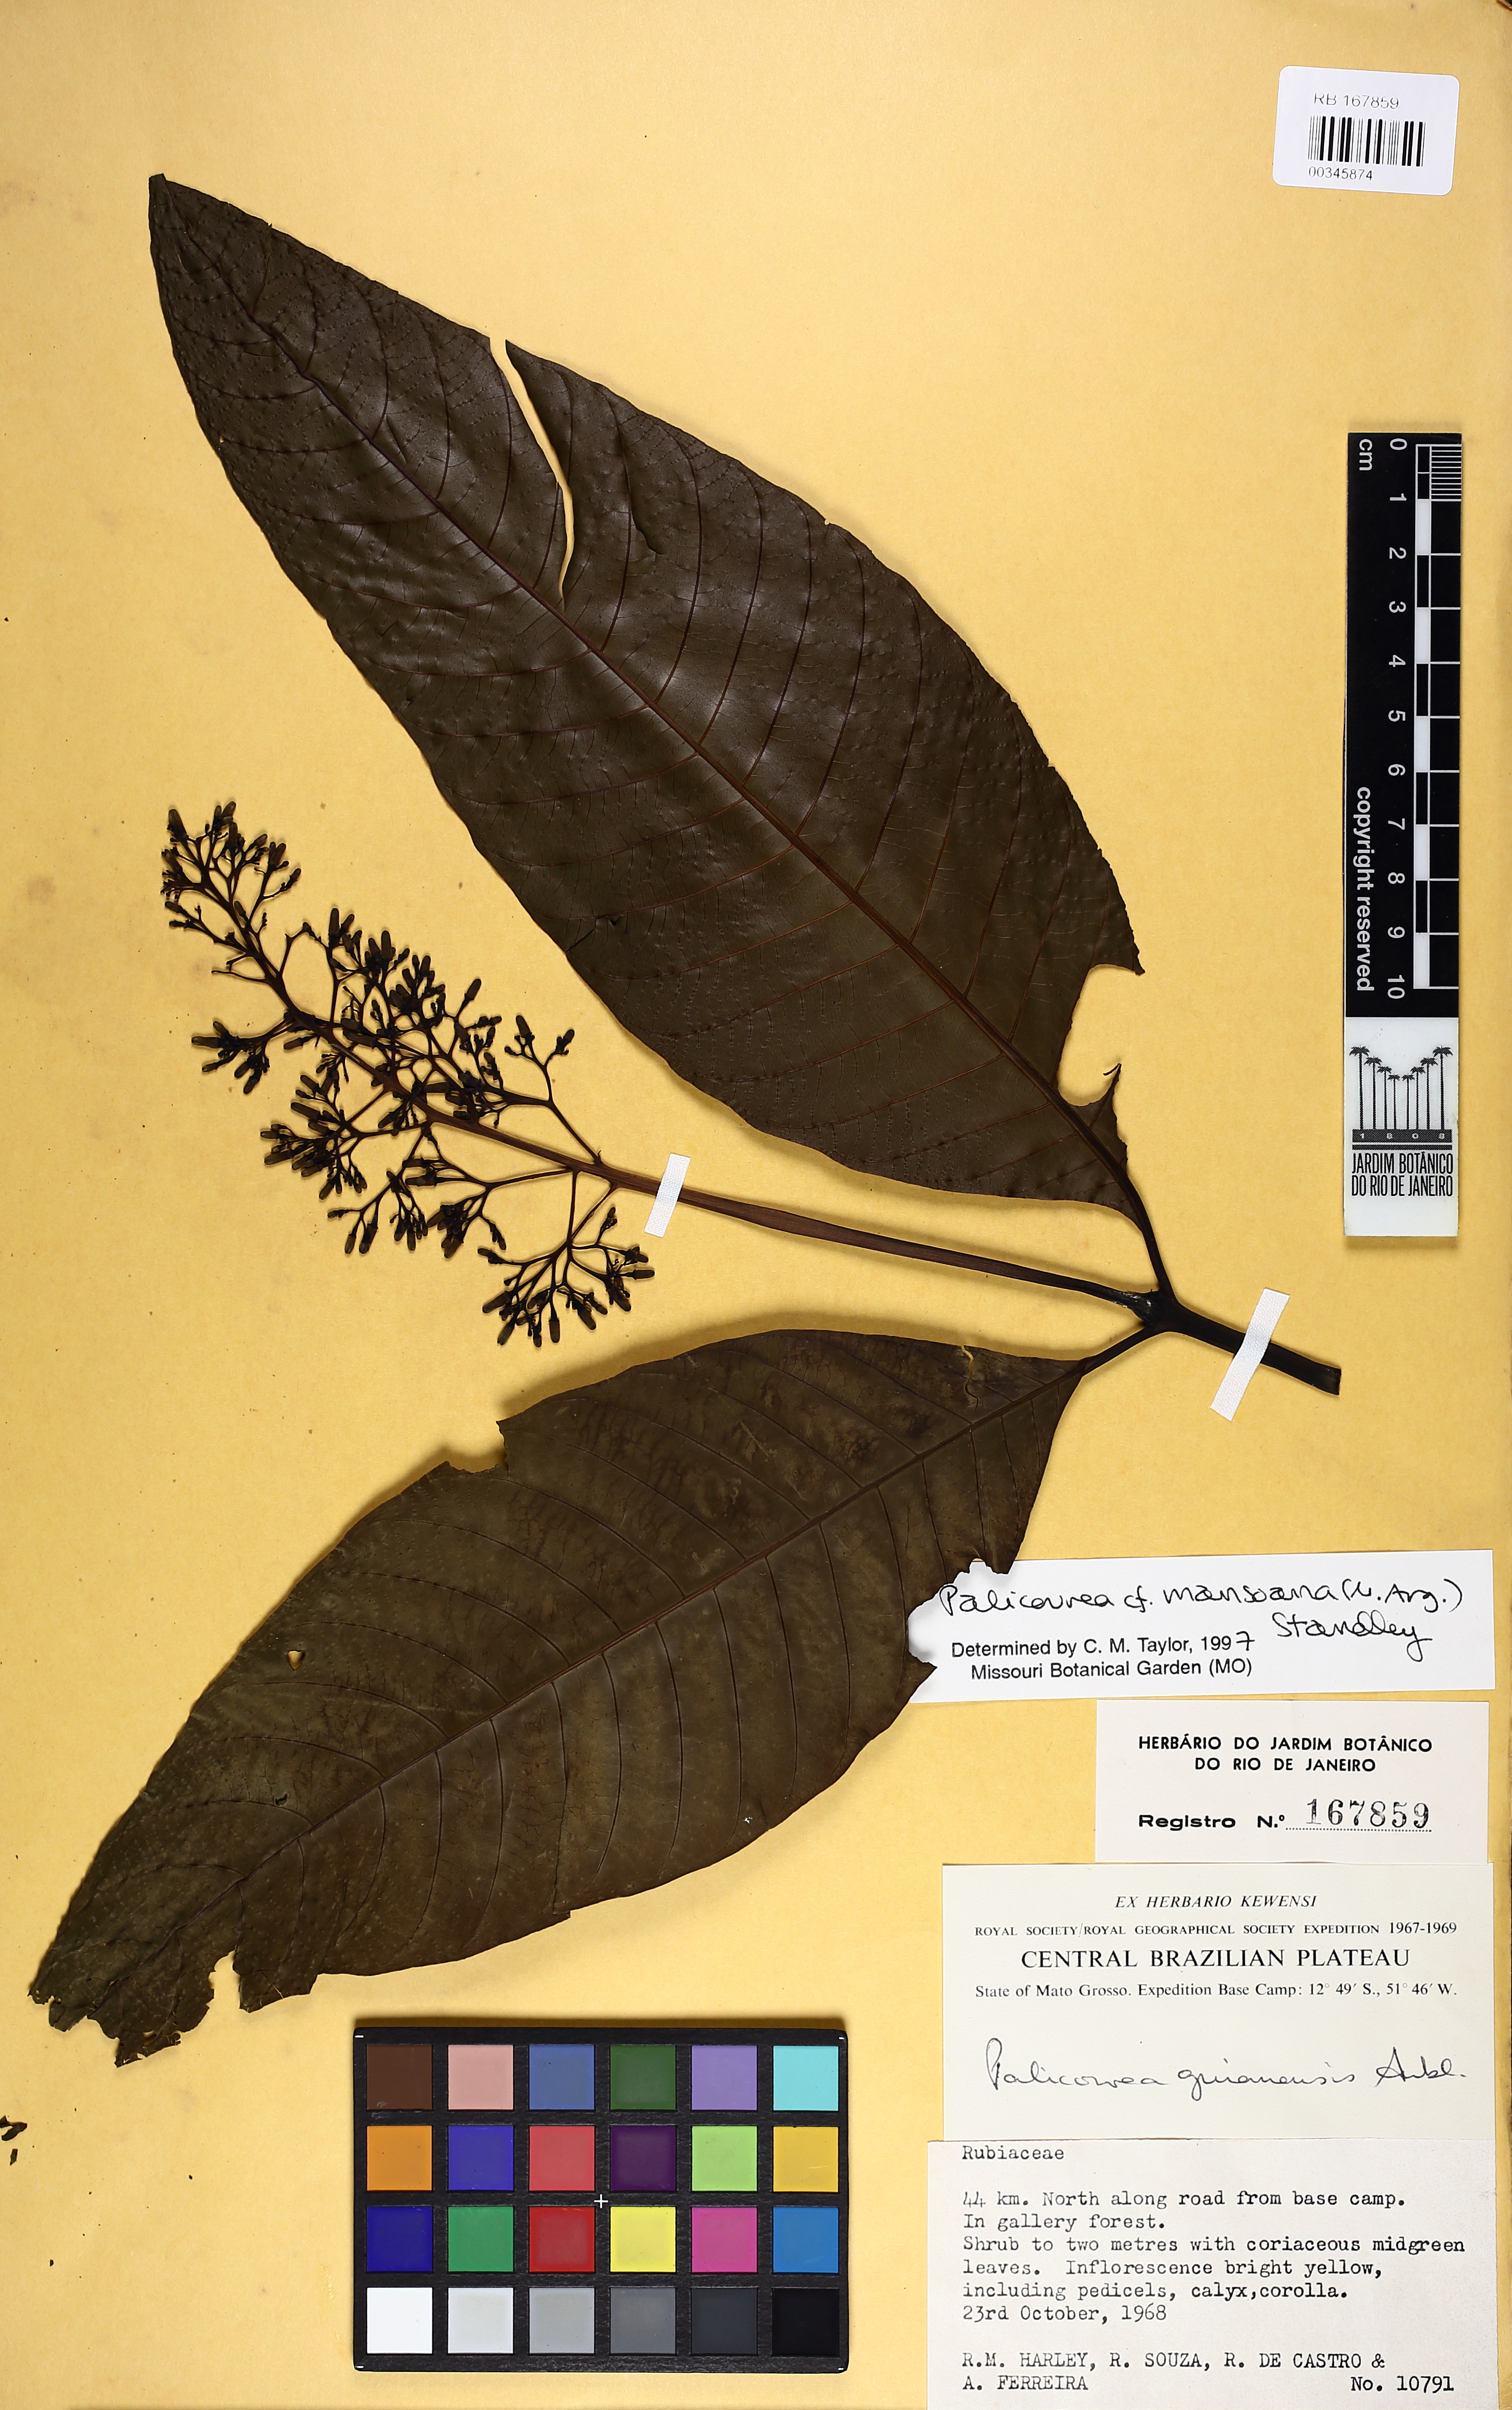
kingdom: Plantae
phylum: Tracheophyta
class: Magnoliopsida
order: Gentianales
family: Rubiaceae
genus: Palicourea
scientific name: Palicourea mansoana
